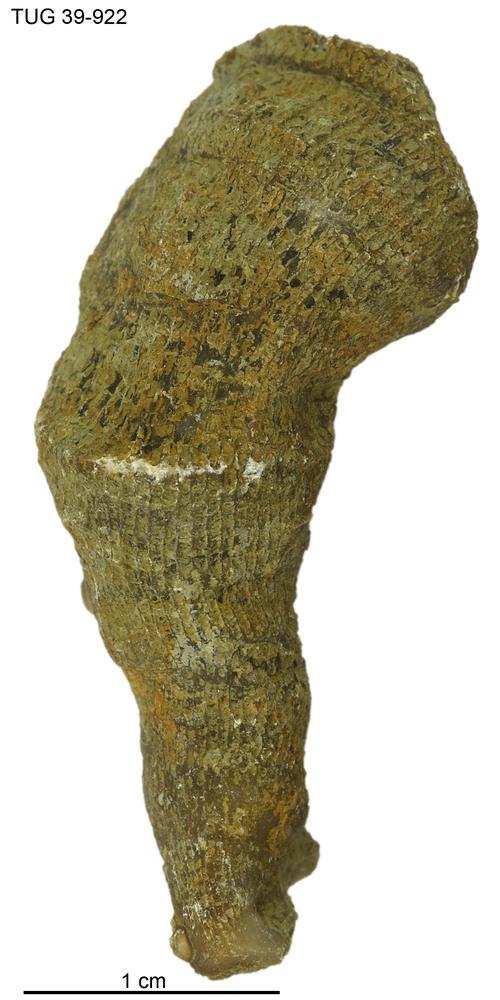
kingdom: Animalia
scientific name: Animalia
